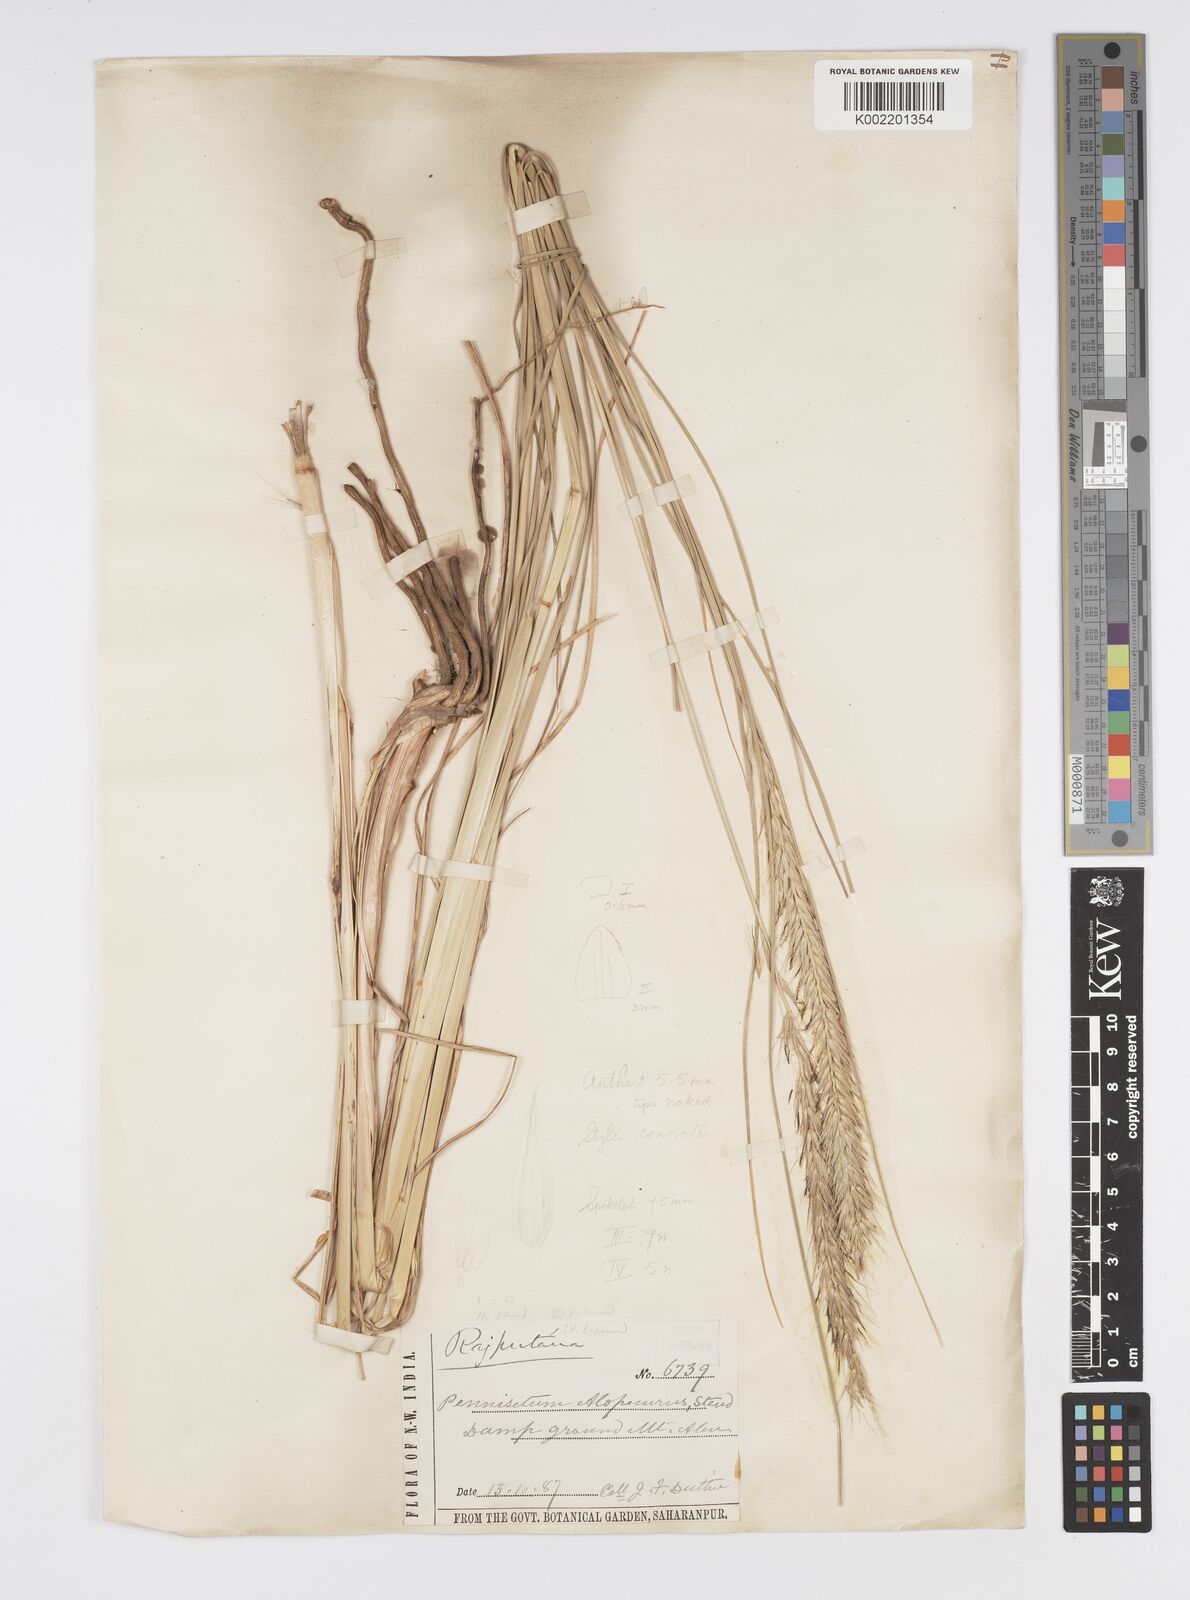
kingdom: Plantae
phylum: Tracheophyta
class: Liliopsida
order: Poales
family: Poaceae
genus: Cenchrus
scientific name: Cenchrus hohenackeri
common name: Moya grass
